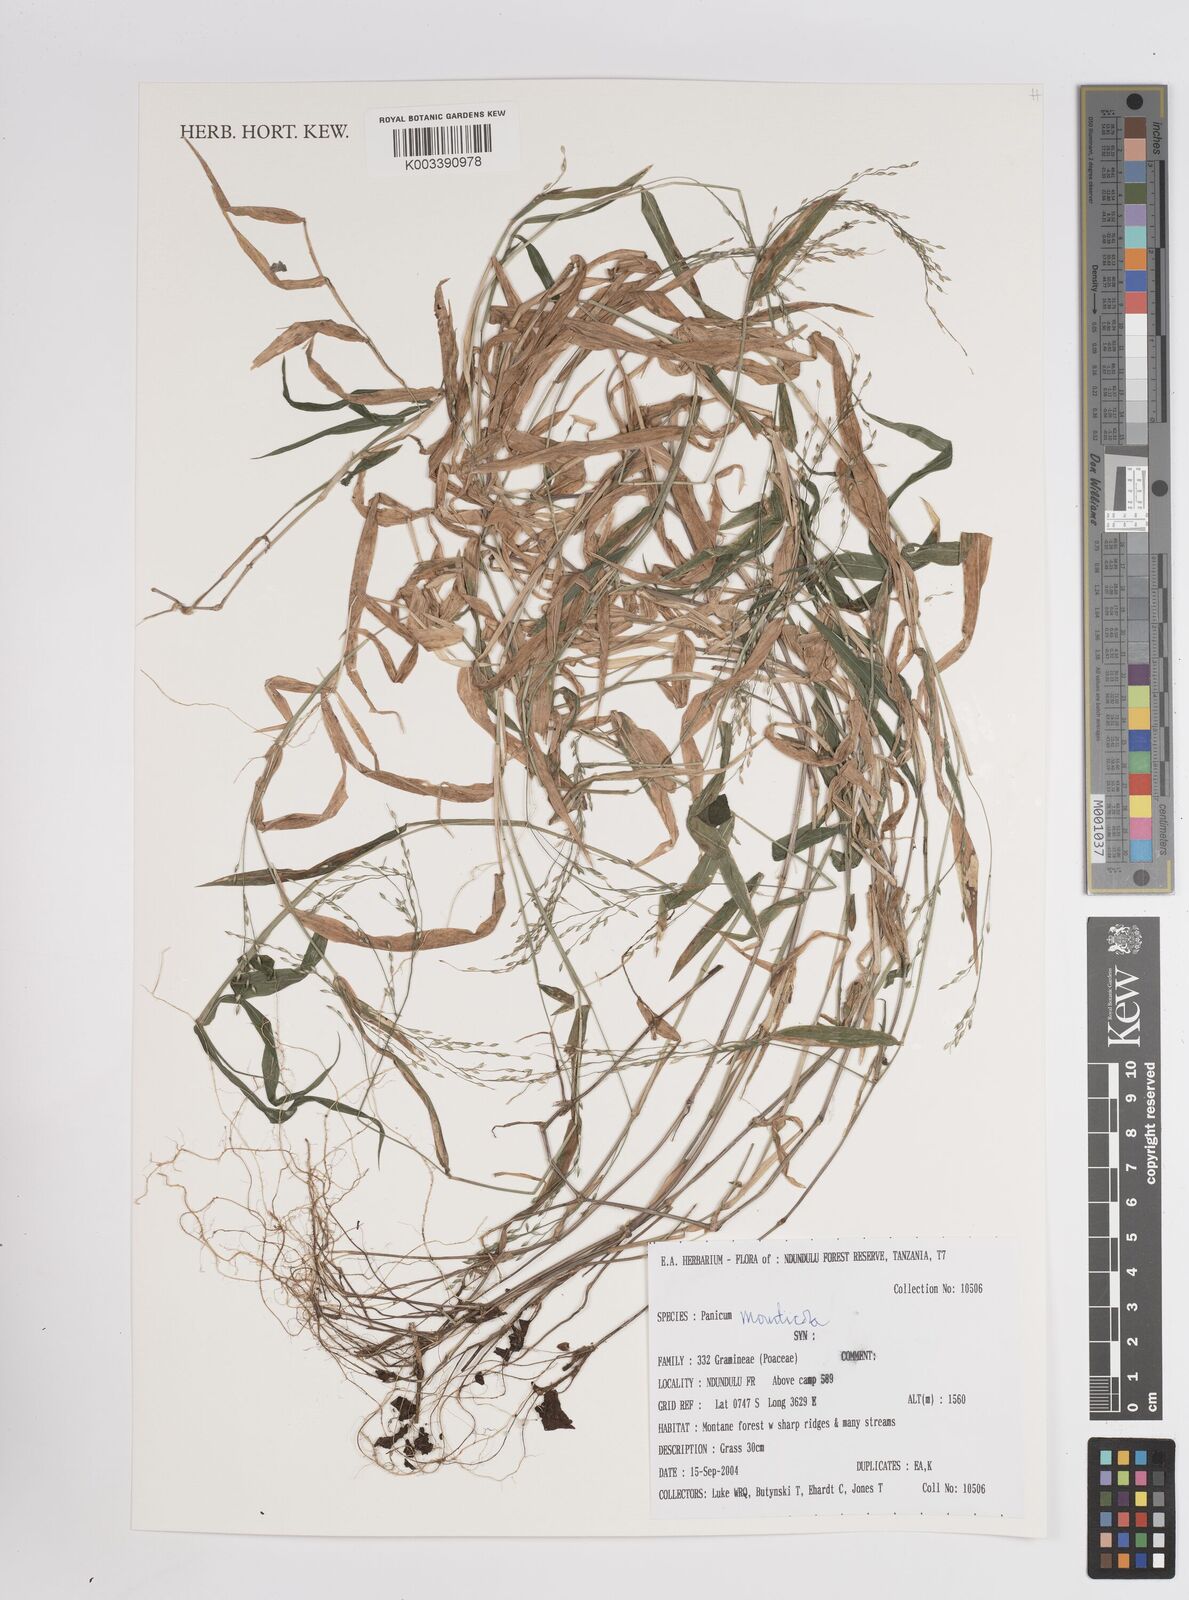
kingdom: Plantae
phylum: Tracheophyta
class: Liliopsida
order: Poales
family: Poaceae
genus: Panicum
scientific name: Panicum monticola
